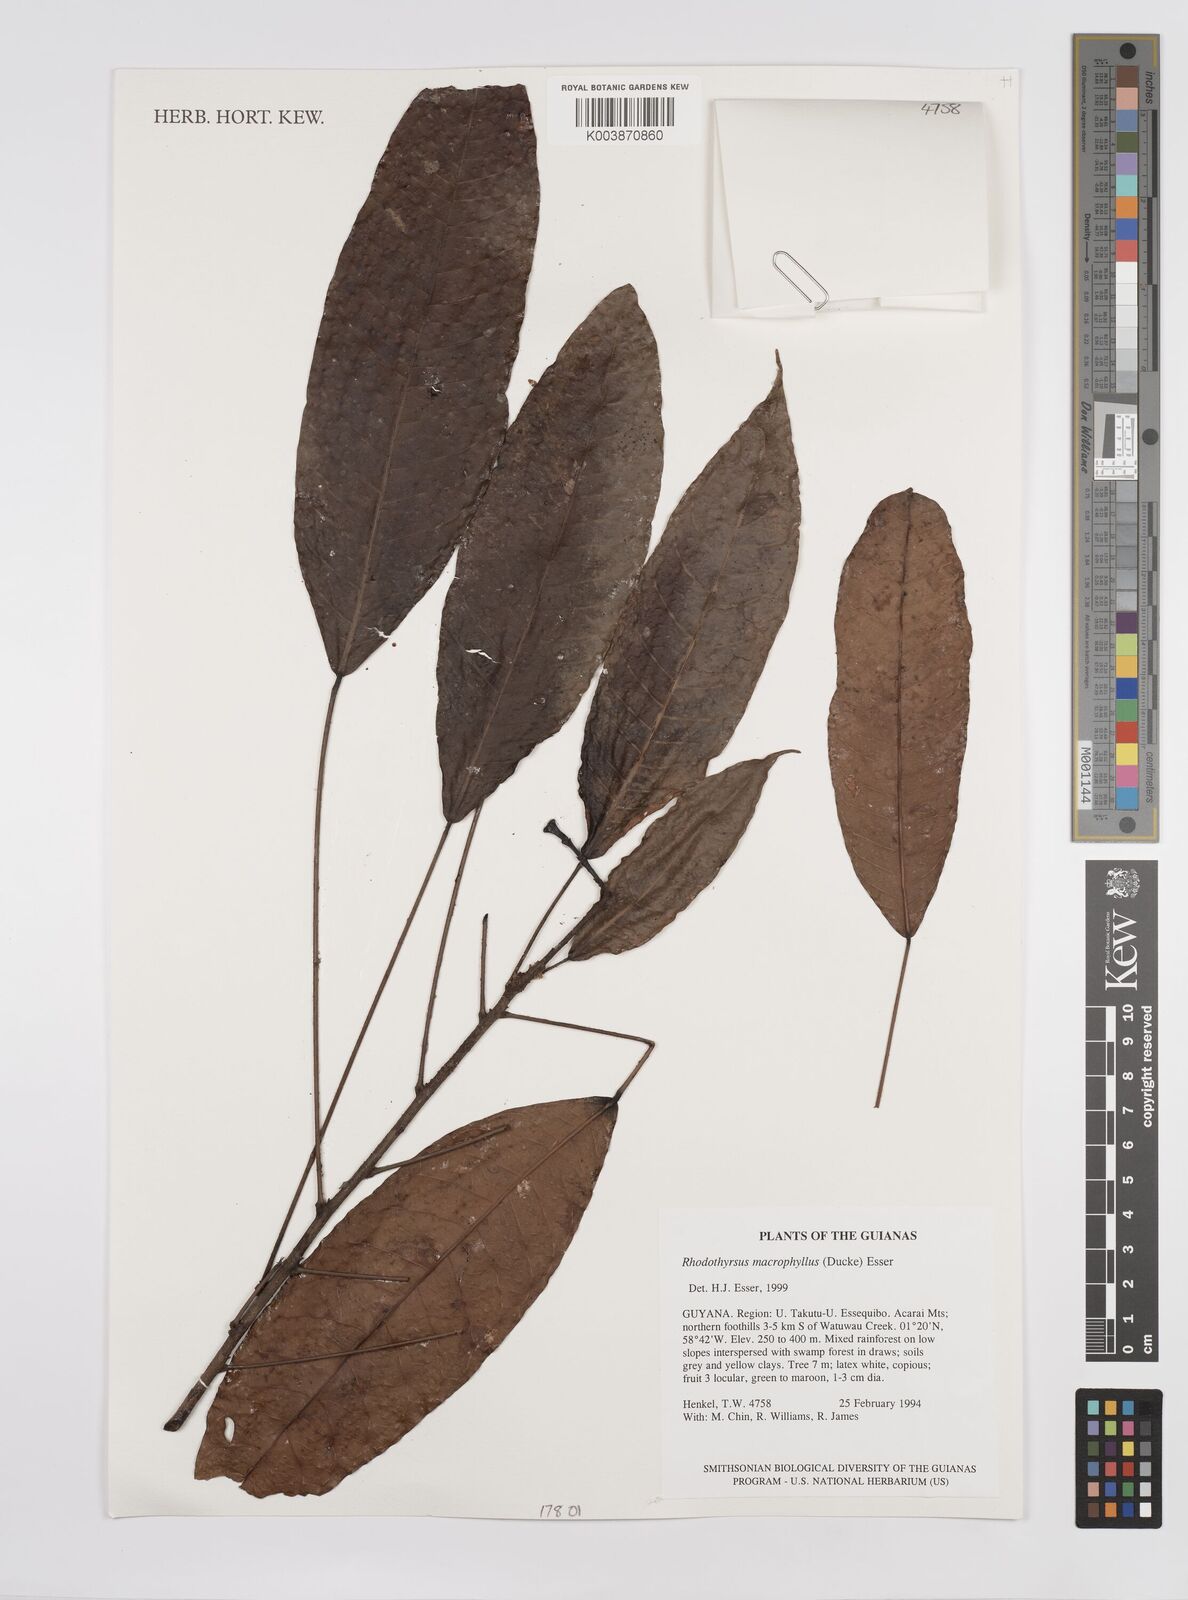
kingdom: Plantae
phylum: Tracheophyta
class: Magnoliopsida
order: Malpighiales
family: Euphorbiaceae
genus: Rhodothyrsus
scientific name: Rhodothyrsus macrophyllus
